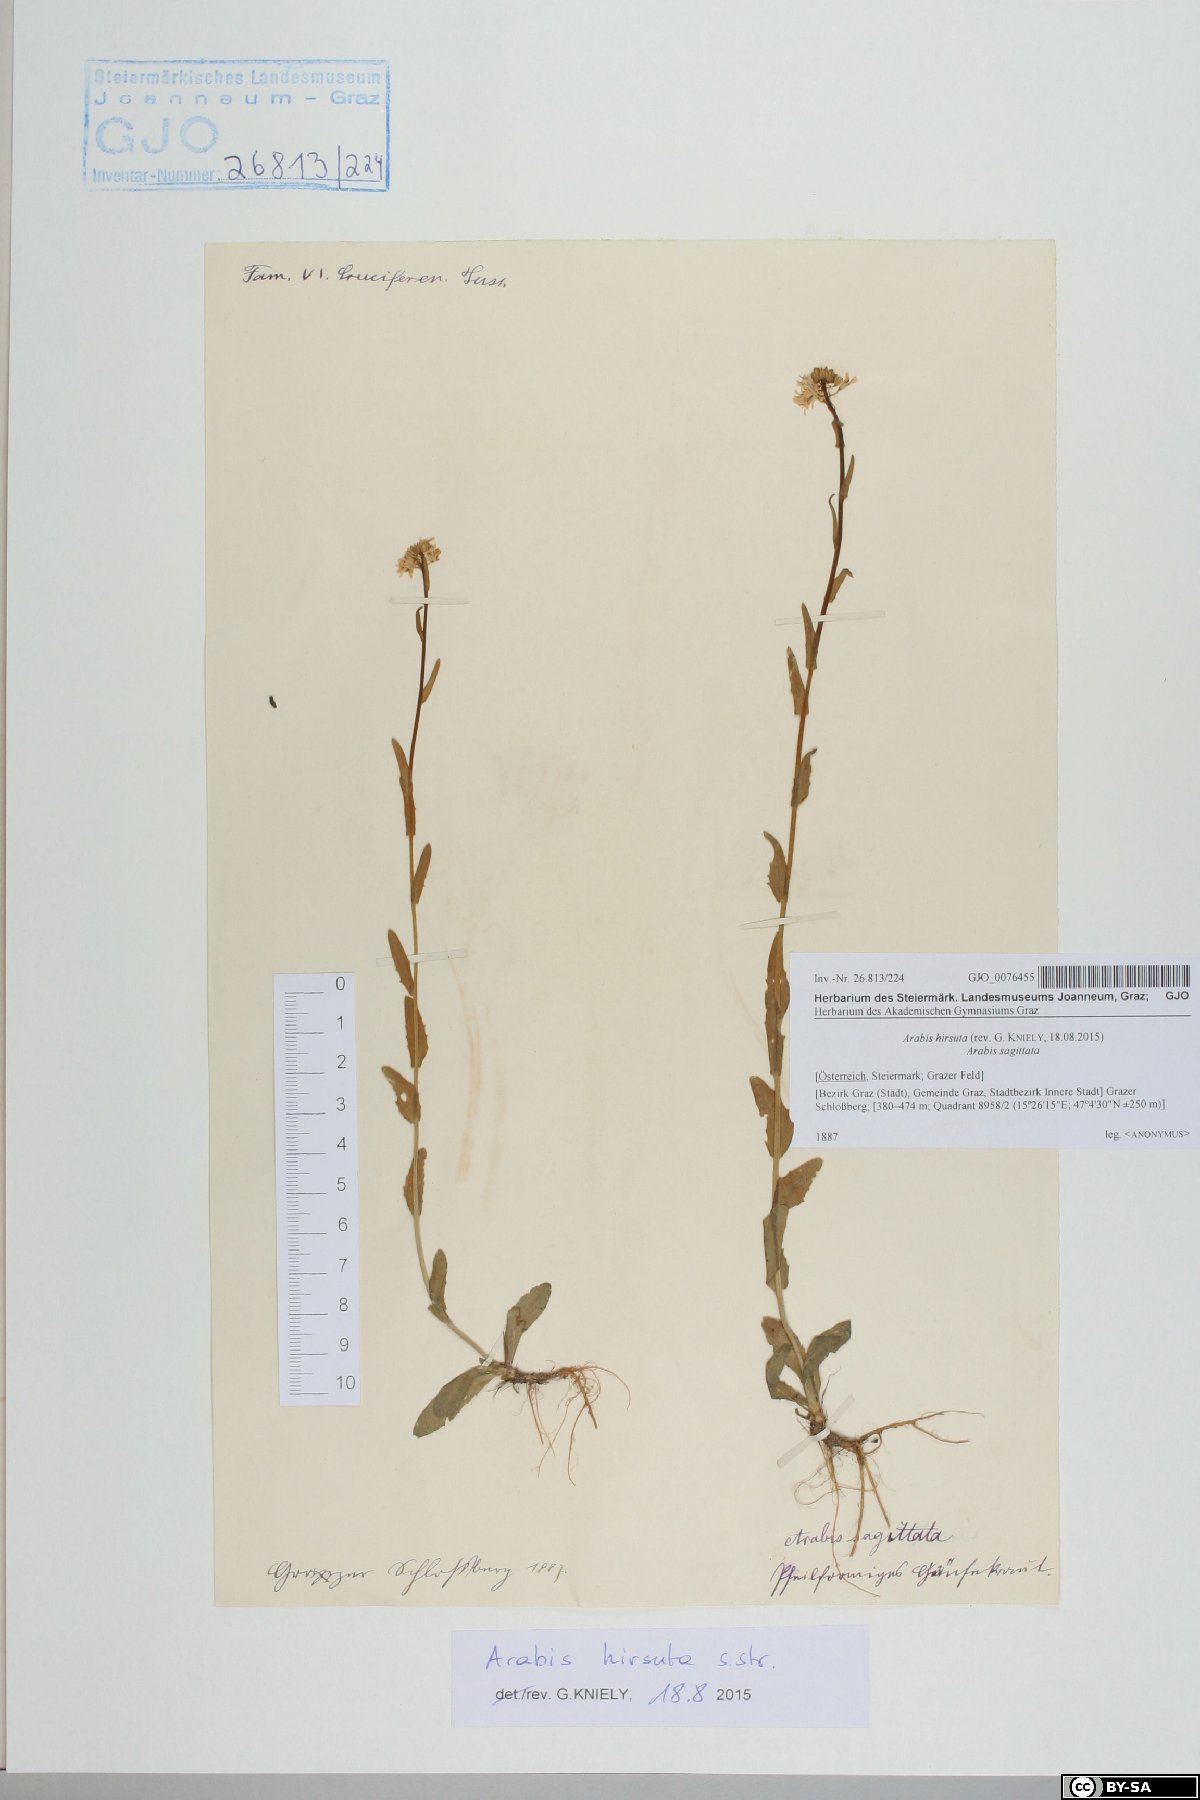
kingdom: Plantae
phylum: Tracheophyta
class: Magnoliopsida
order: Brassicales
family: Brassicaceae
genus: Arabis
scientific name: Arabis hirsuta
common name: Hairy rock-cress
